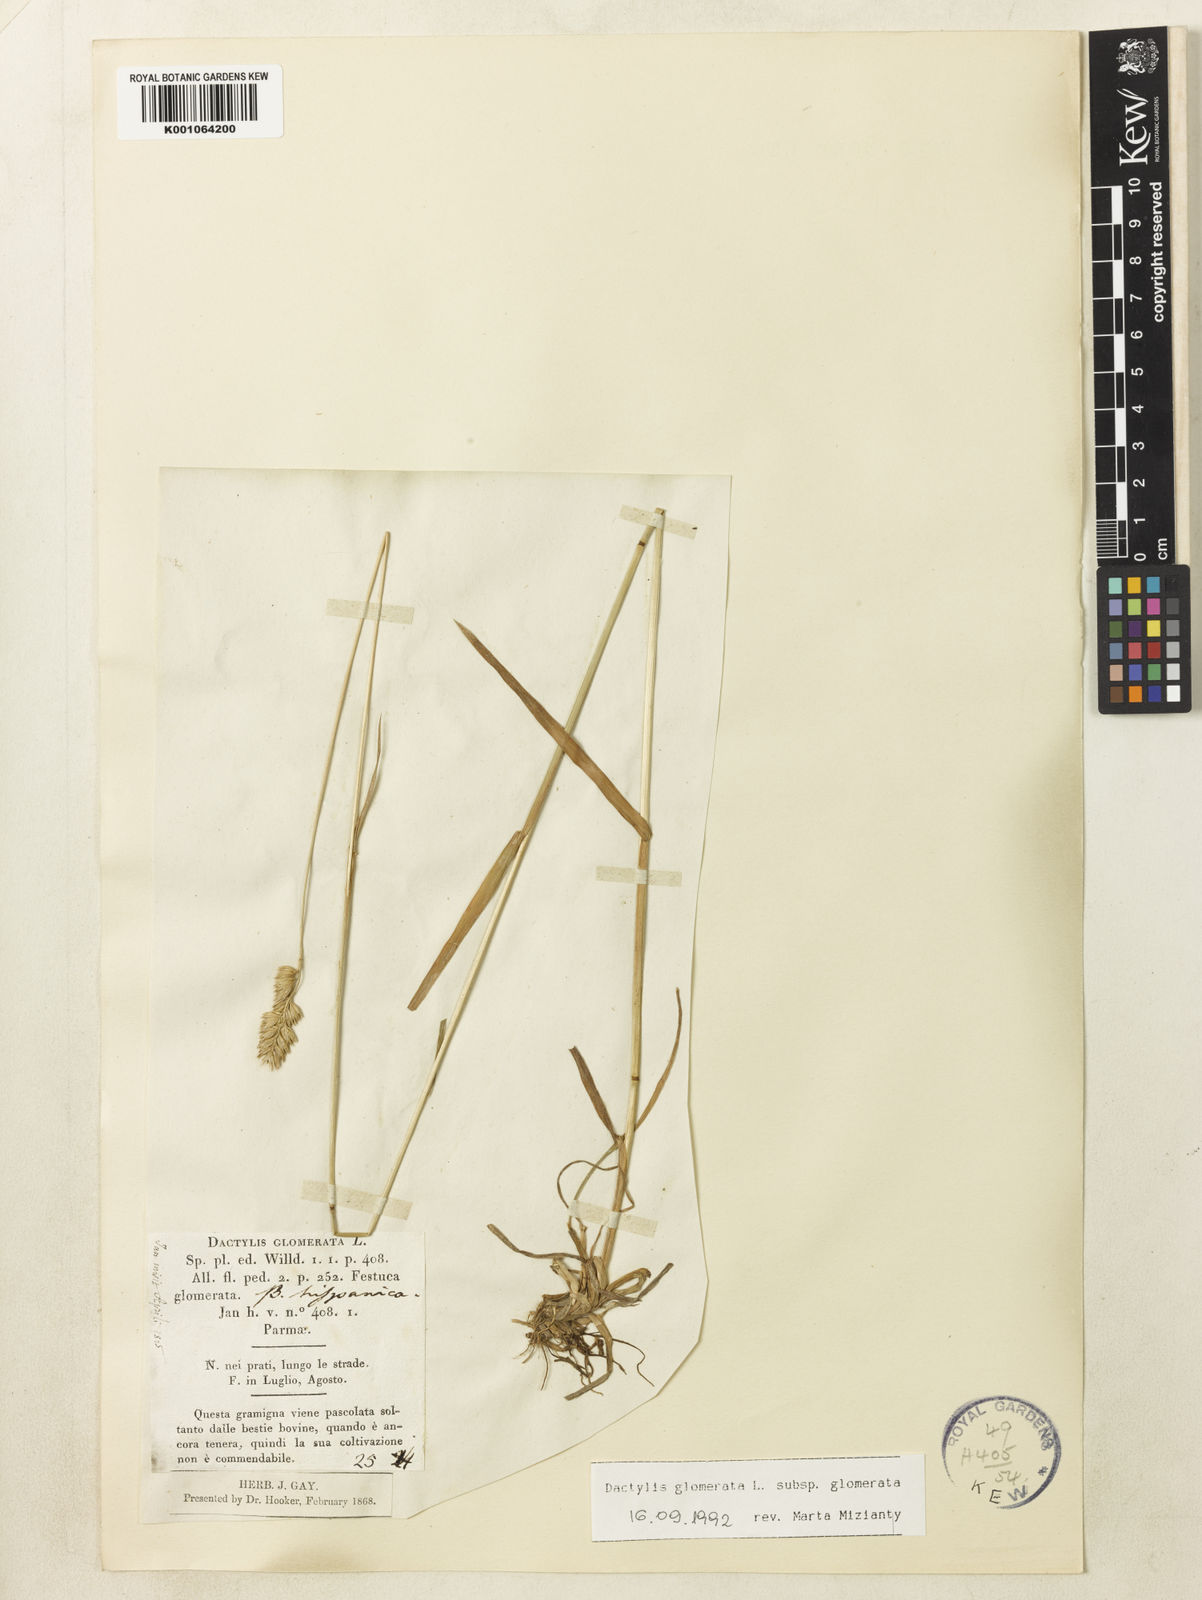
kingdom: Plantae
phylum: Tracheophyta
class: Liliopsida
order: Poales
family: Poaceae
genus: Dactylis
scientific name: Dactylis glomerata
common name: Orchardgrass
